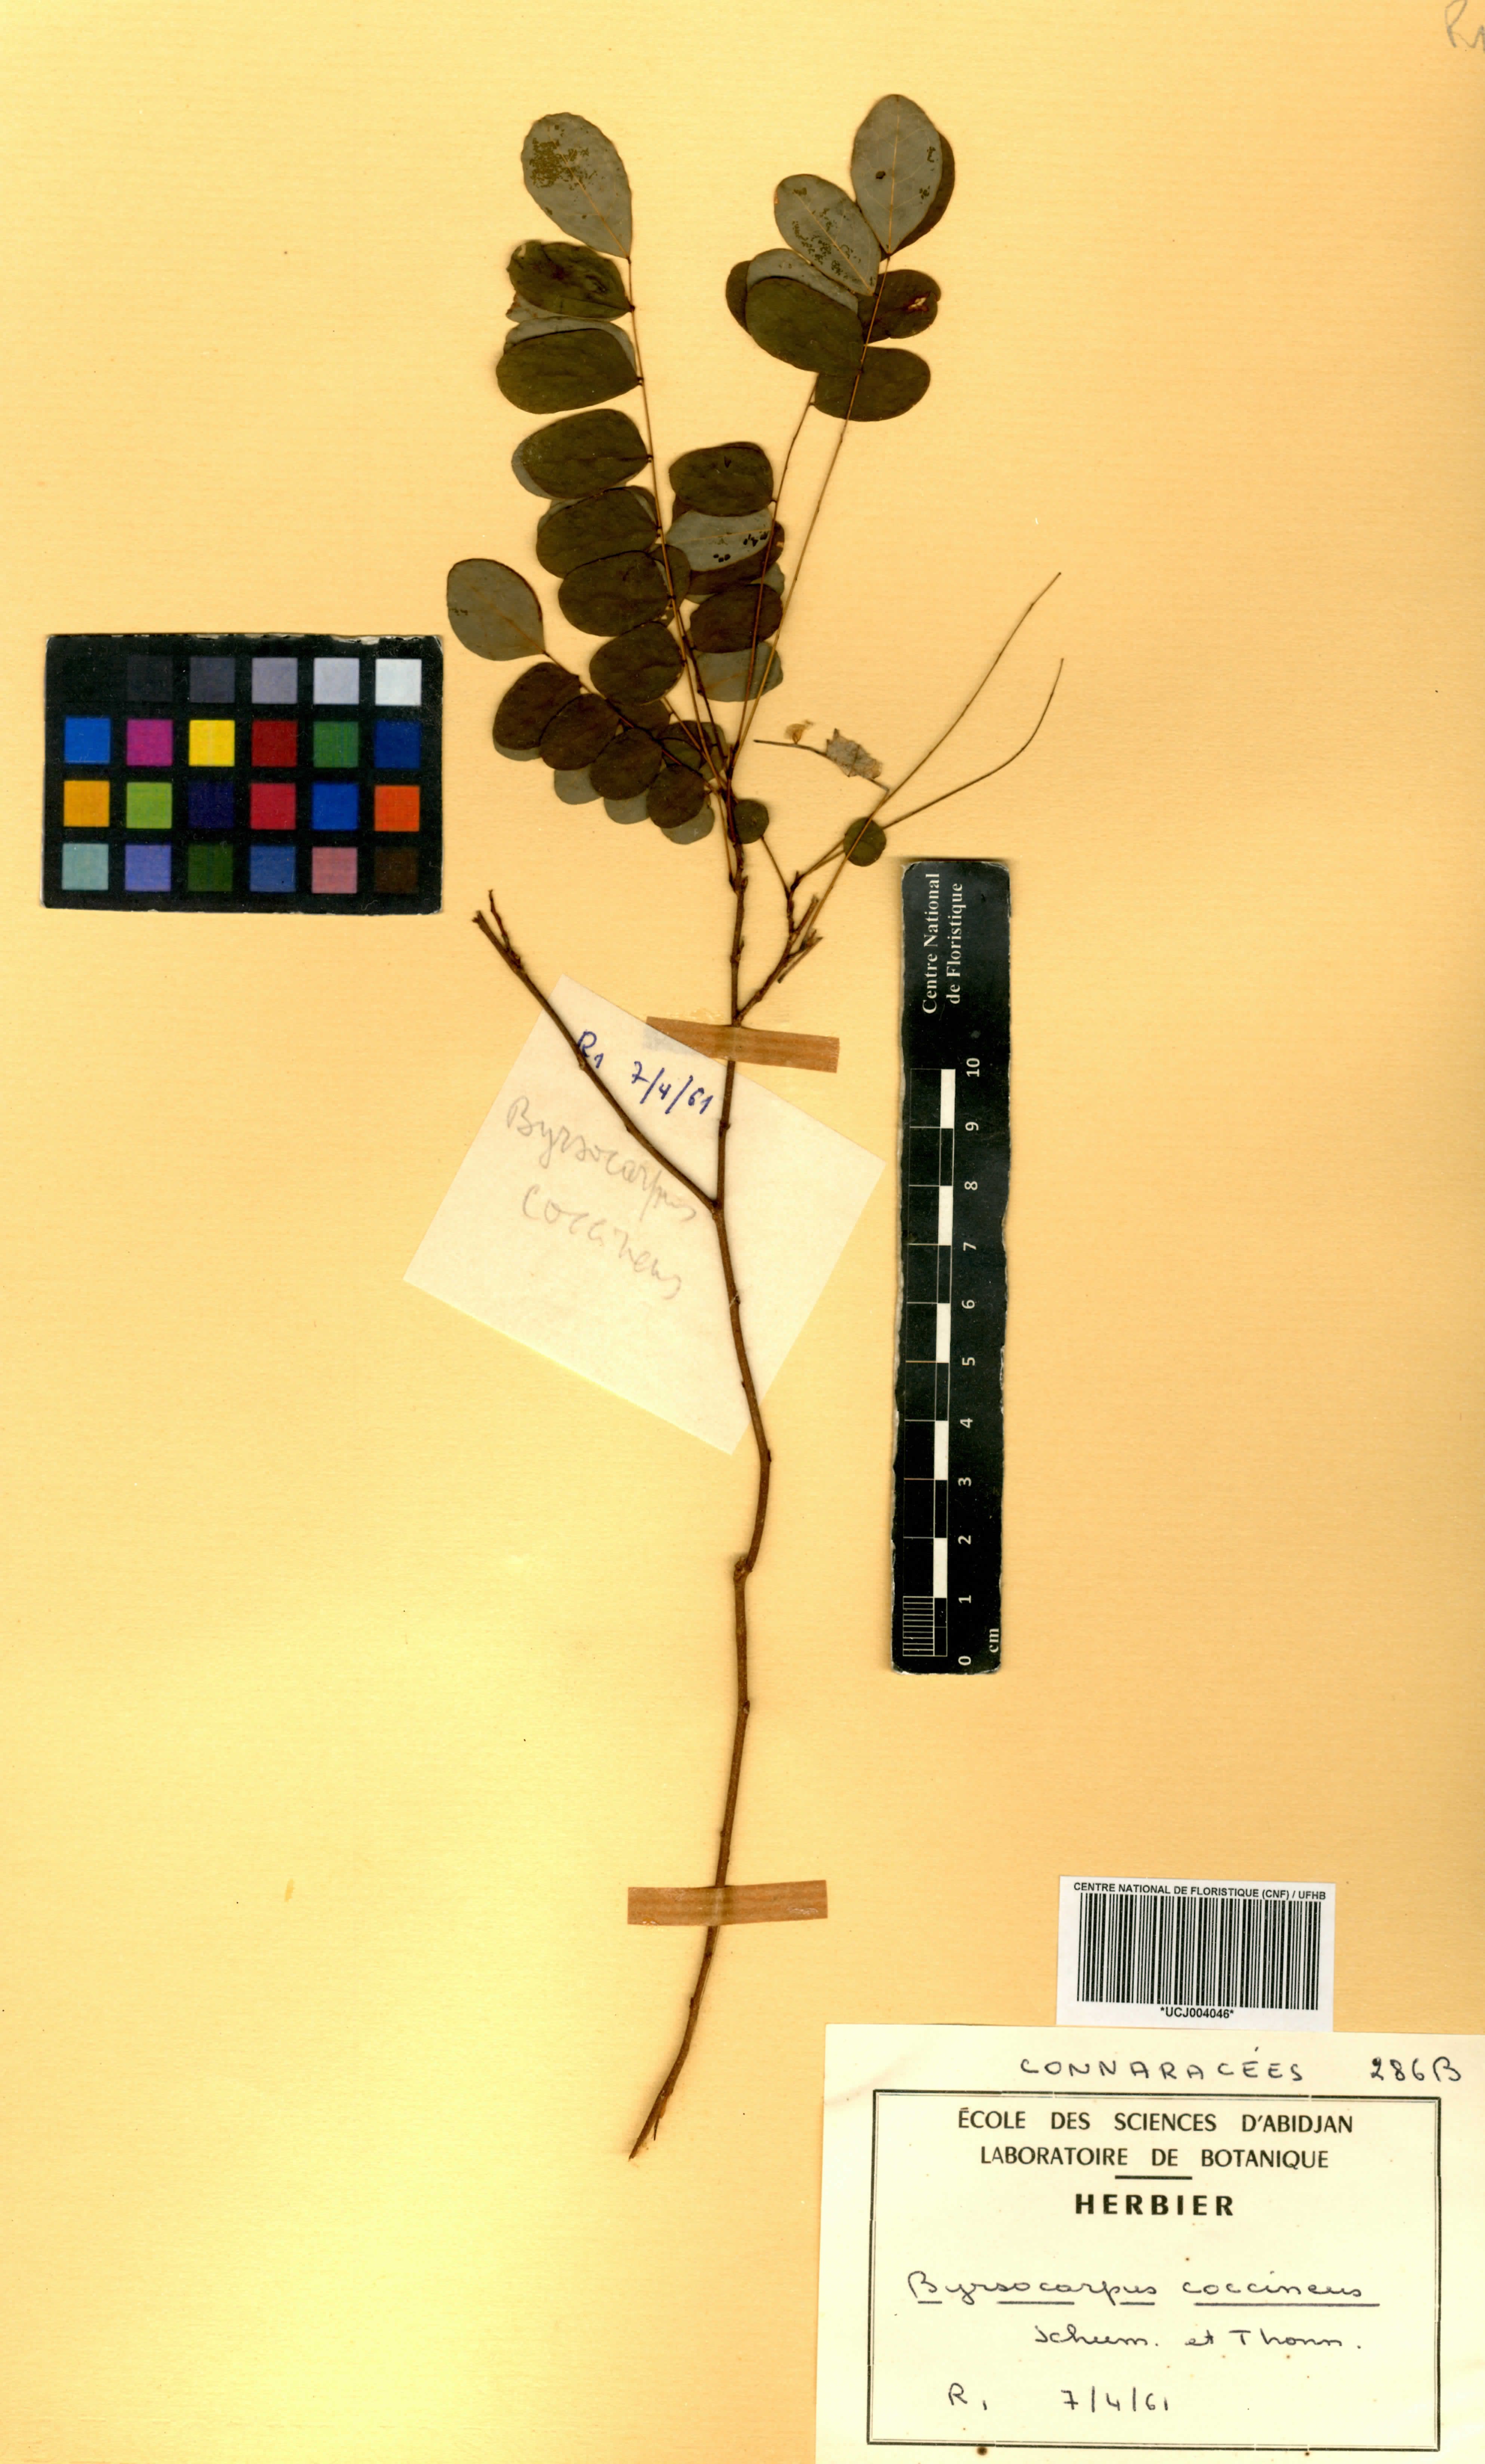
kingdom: Plantae
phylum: Tracheophyta
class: Magnoliopsida
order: Oxalidales
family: Connaraceae
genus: Rourea
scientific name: Rourea coccinea
